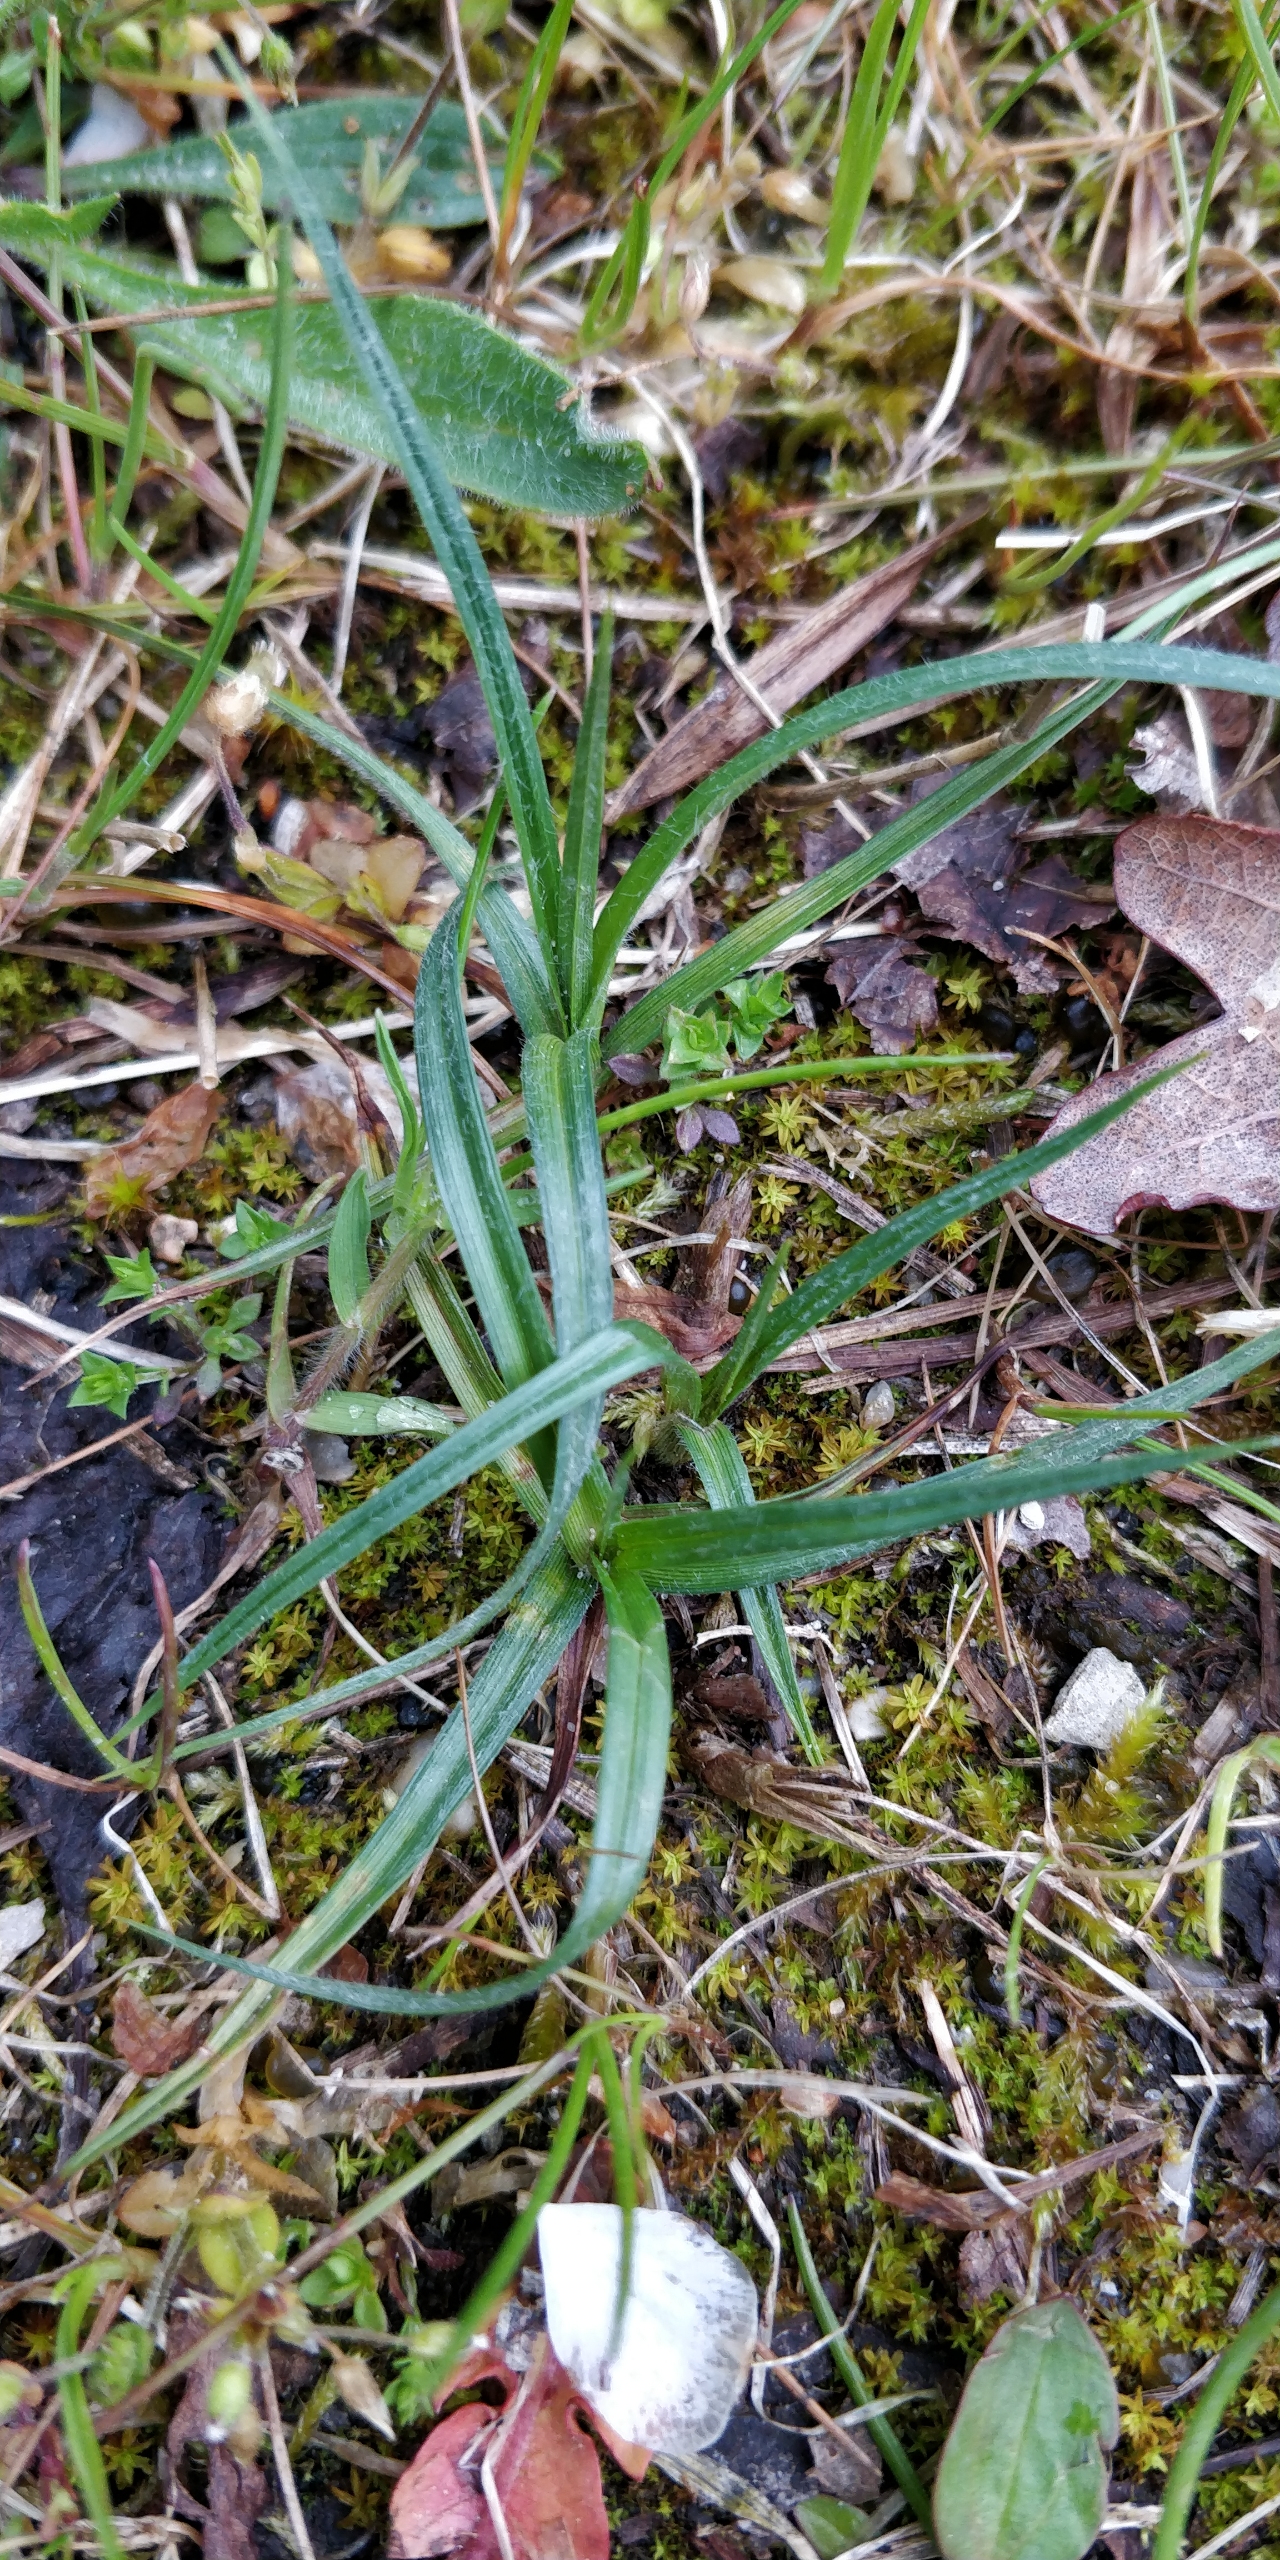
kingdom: Plantae
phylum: Tracheophyta
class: Liliopsida
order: Poales
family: Cyperaceae
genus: Carex
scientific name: Carex hirta
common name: Håret star
